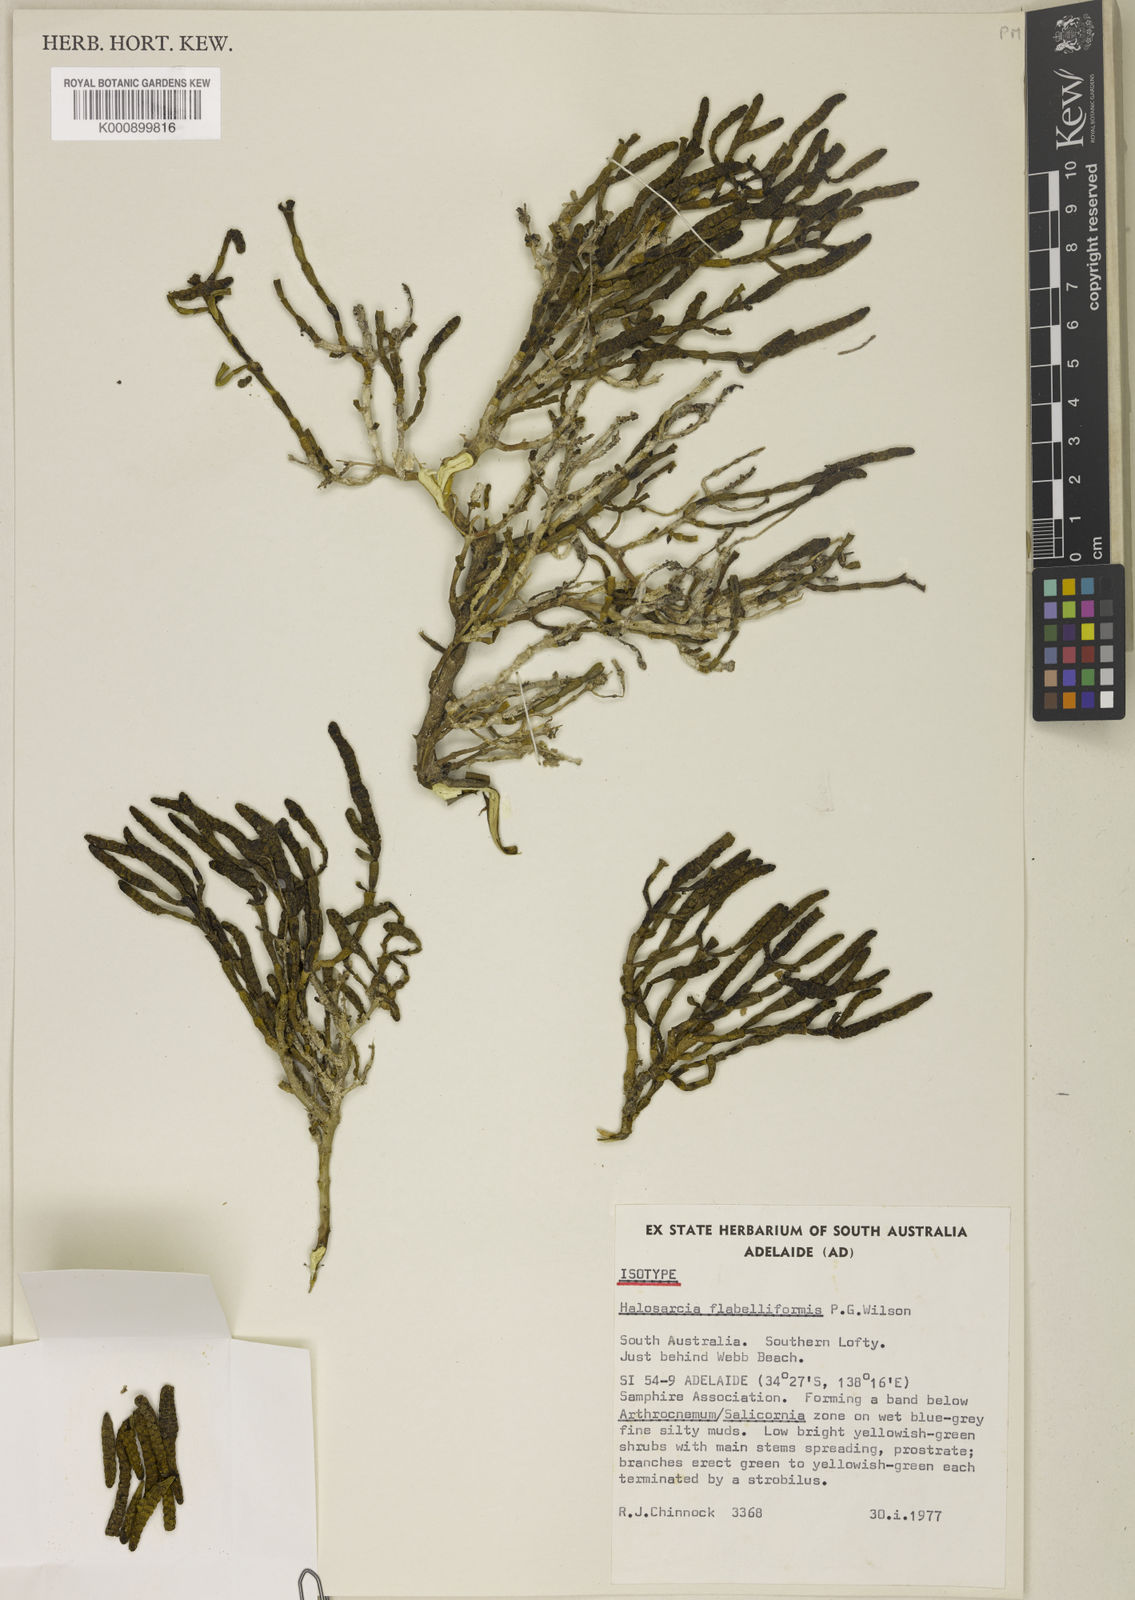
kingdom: Plantae
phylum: Tracheophyta
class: Magnoliopsida
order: Caryophyllales
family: Amaranthaceae
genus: Tecticornia
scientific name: Tecticornia flabelliformis
